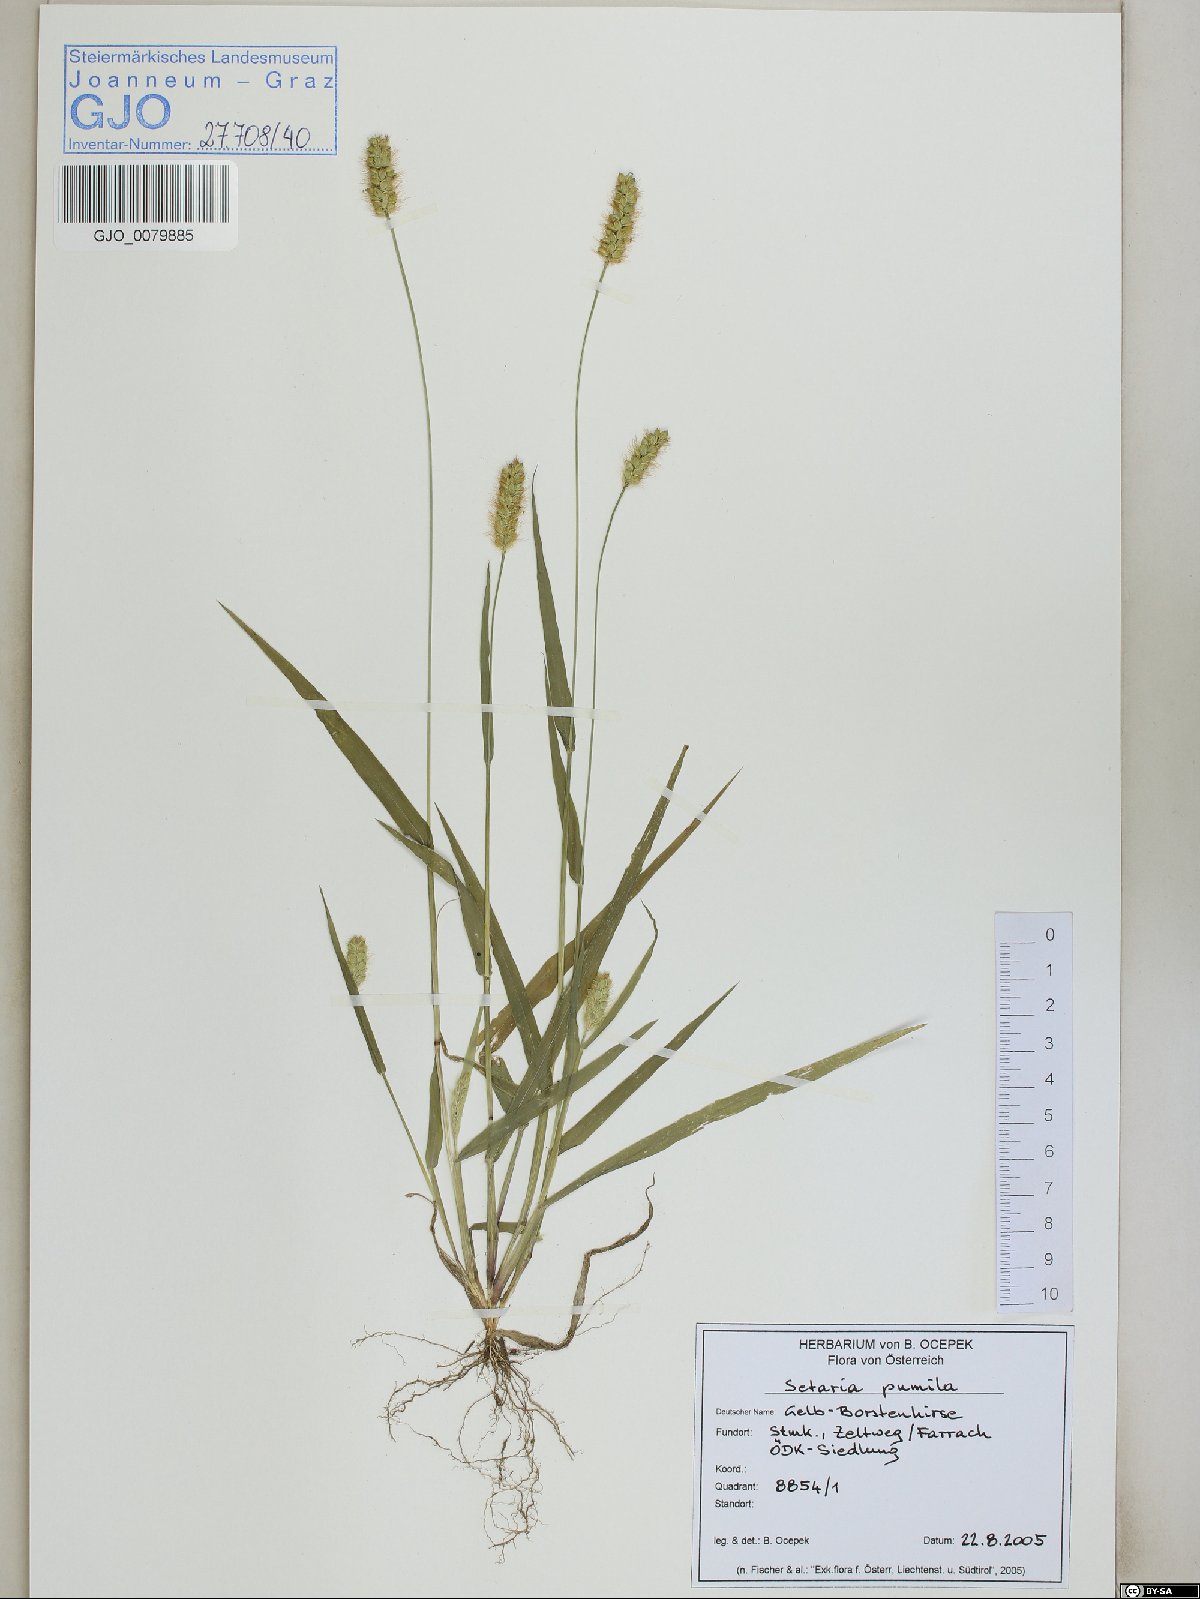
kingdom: Plantae
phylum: Tracheophyta
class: Liliopsida
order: Poales
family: Poaceae
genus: Setaria
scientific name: Setaria pumila
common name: Yellow bristle-grass
